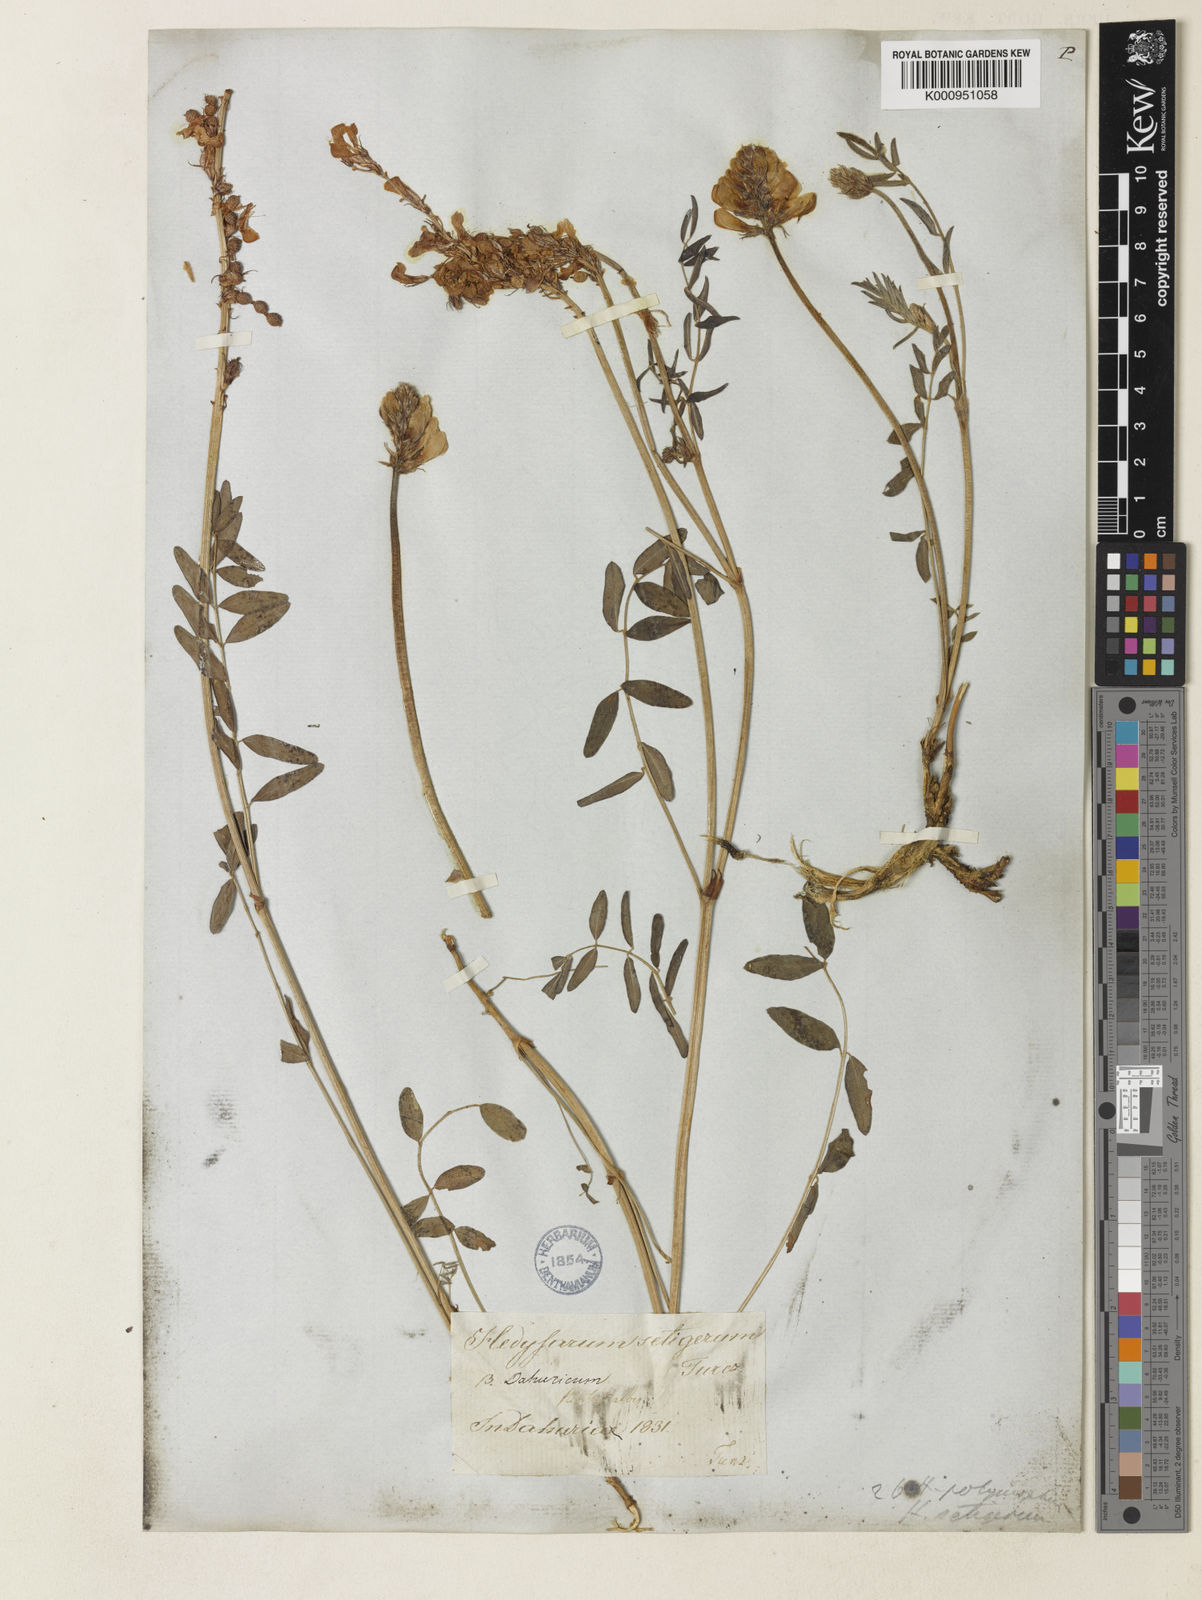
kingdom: Plantae
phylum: Tracheophyta
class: Magnoliopsida
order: Fabales
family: Fabaceae
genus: Hedysarum
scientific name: Hedysarum gmelinii
